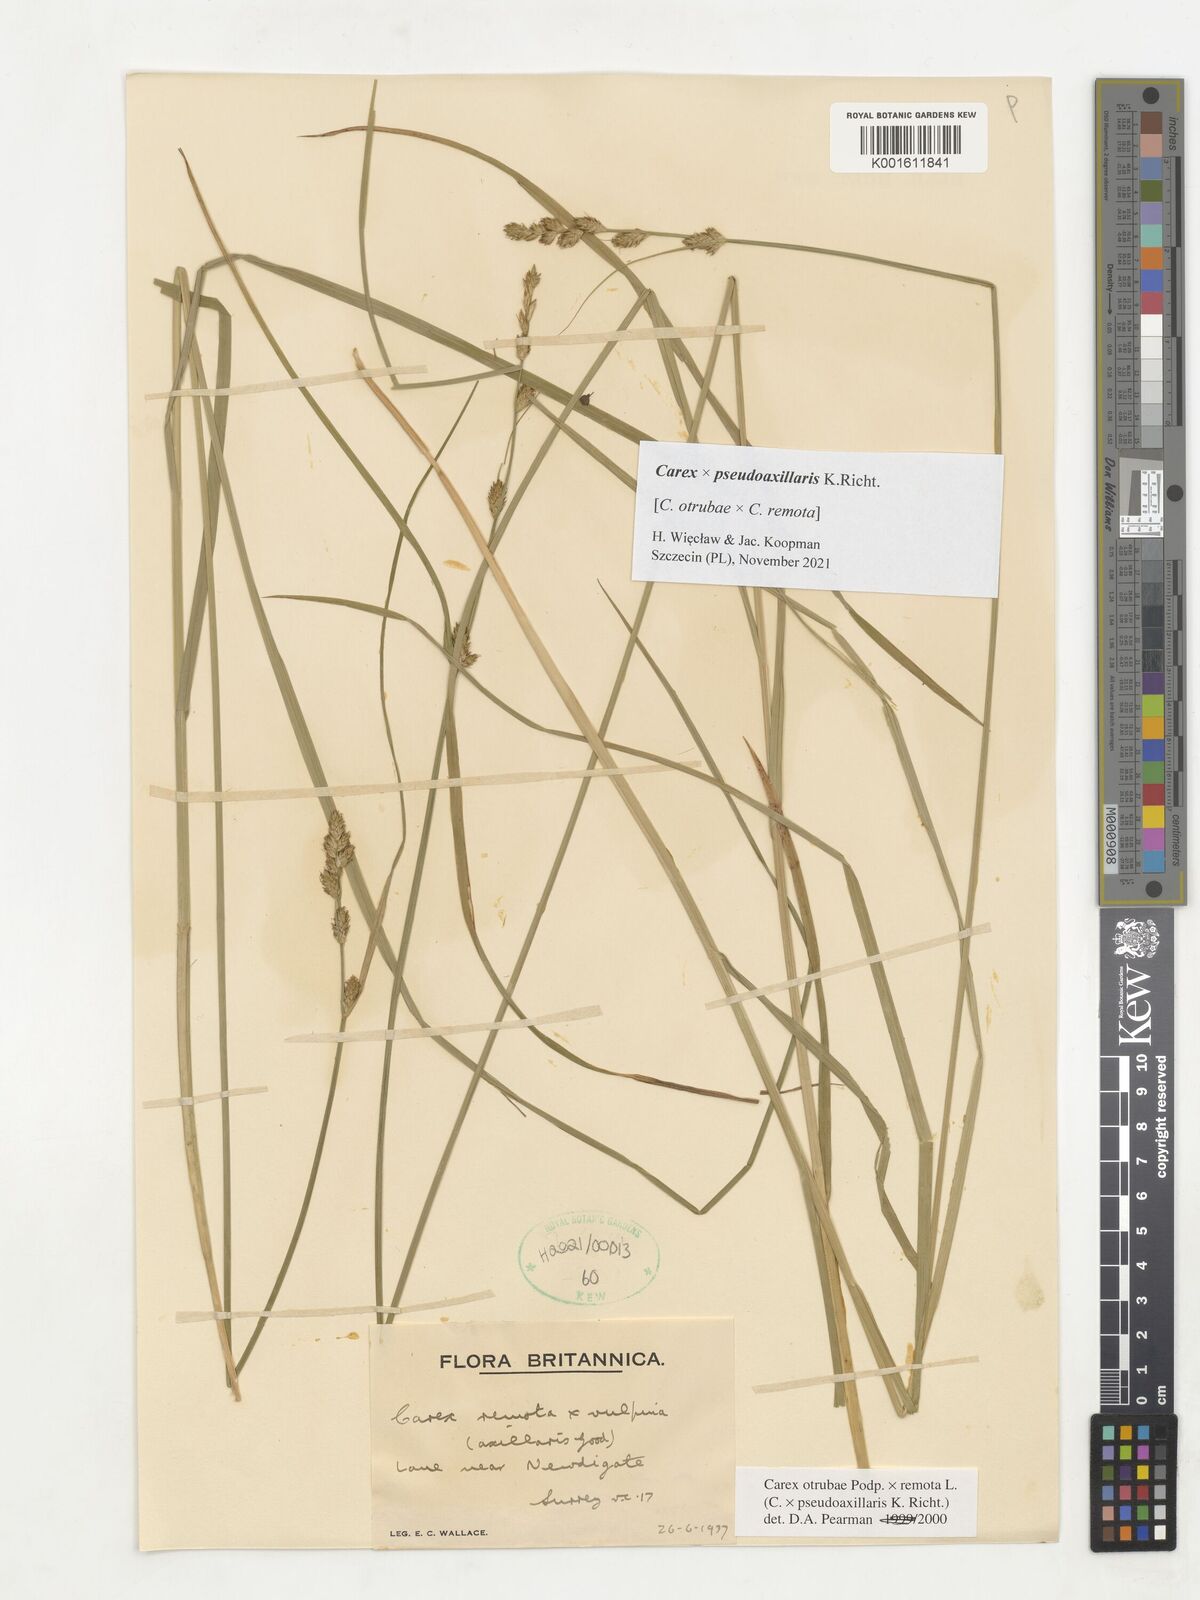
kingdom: Plantae
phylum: Tracheophyta
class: Liliopsida
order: Poales
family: Cyperaceae
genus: Carex
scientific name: Carex pseudoaxillaris
